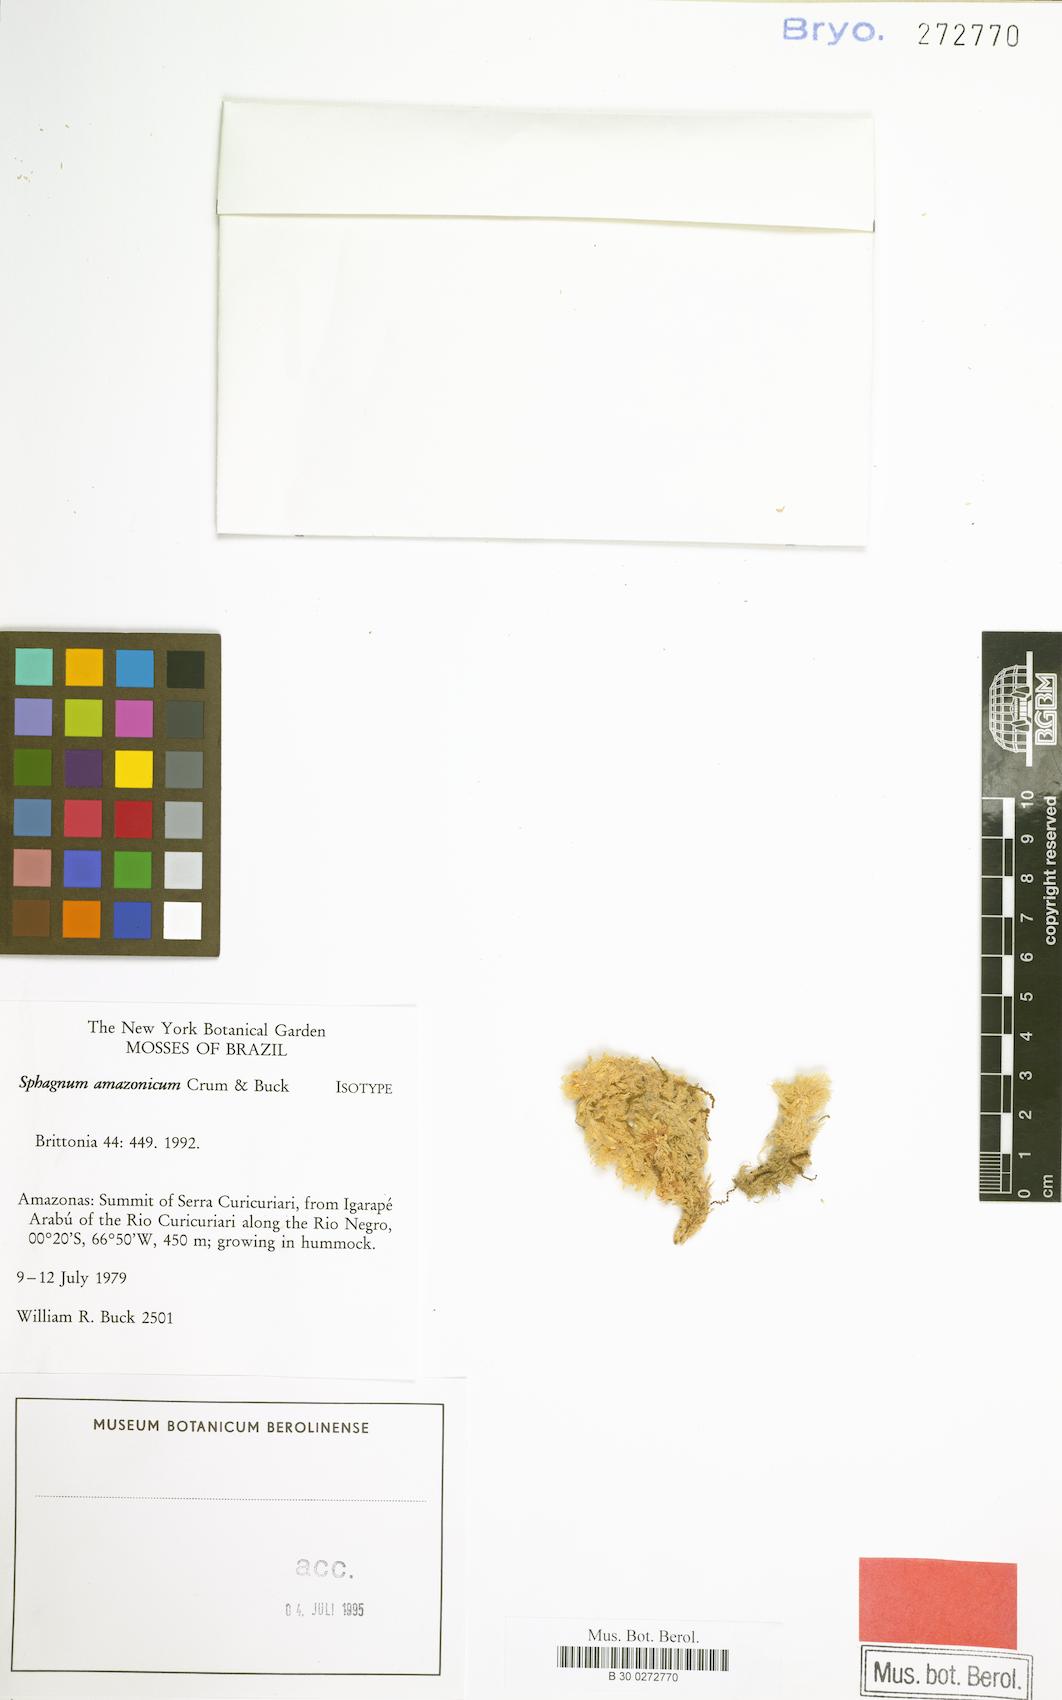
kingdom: Plantae
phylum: Bryophyta
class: Sphagnopsida
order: Sphagnales
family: Sphagnaceae
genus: Sphagnum
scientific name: Sphagnum amazonicum
